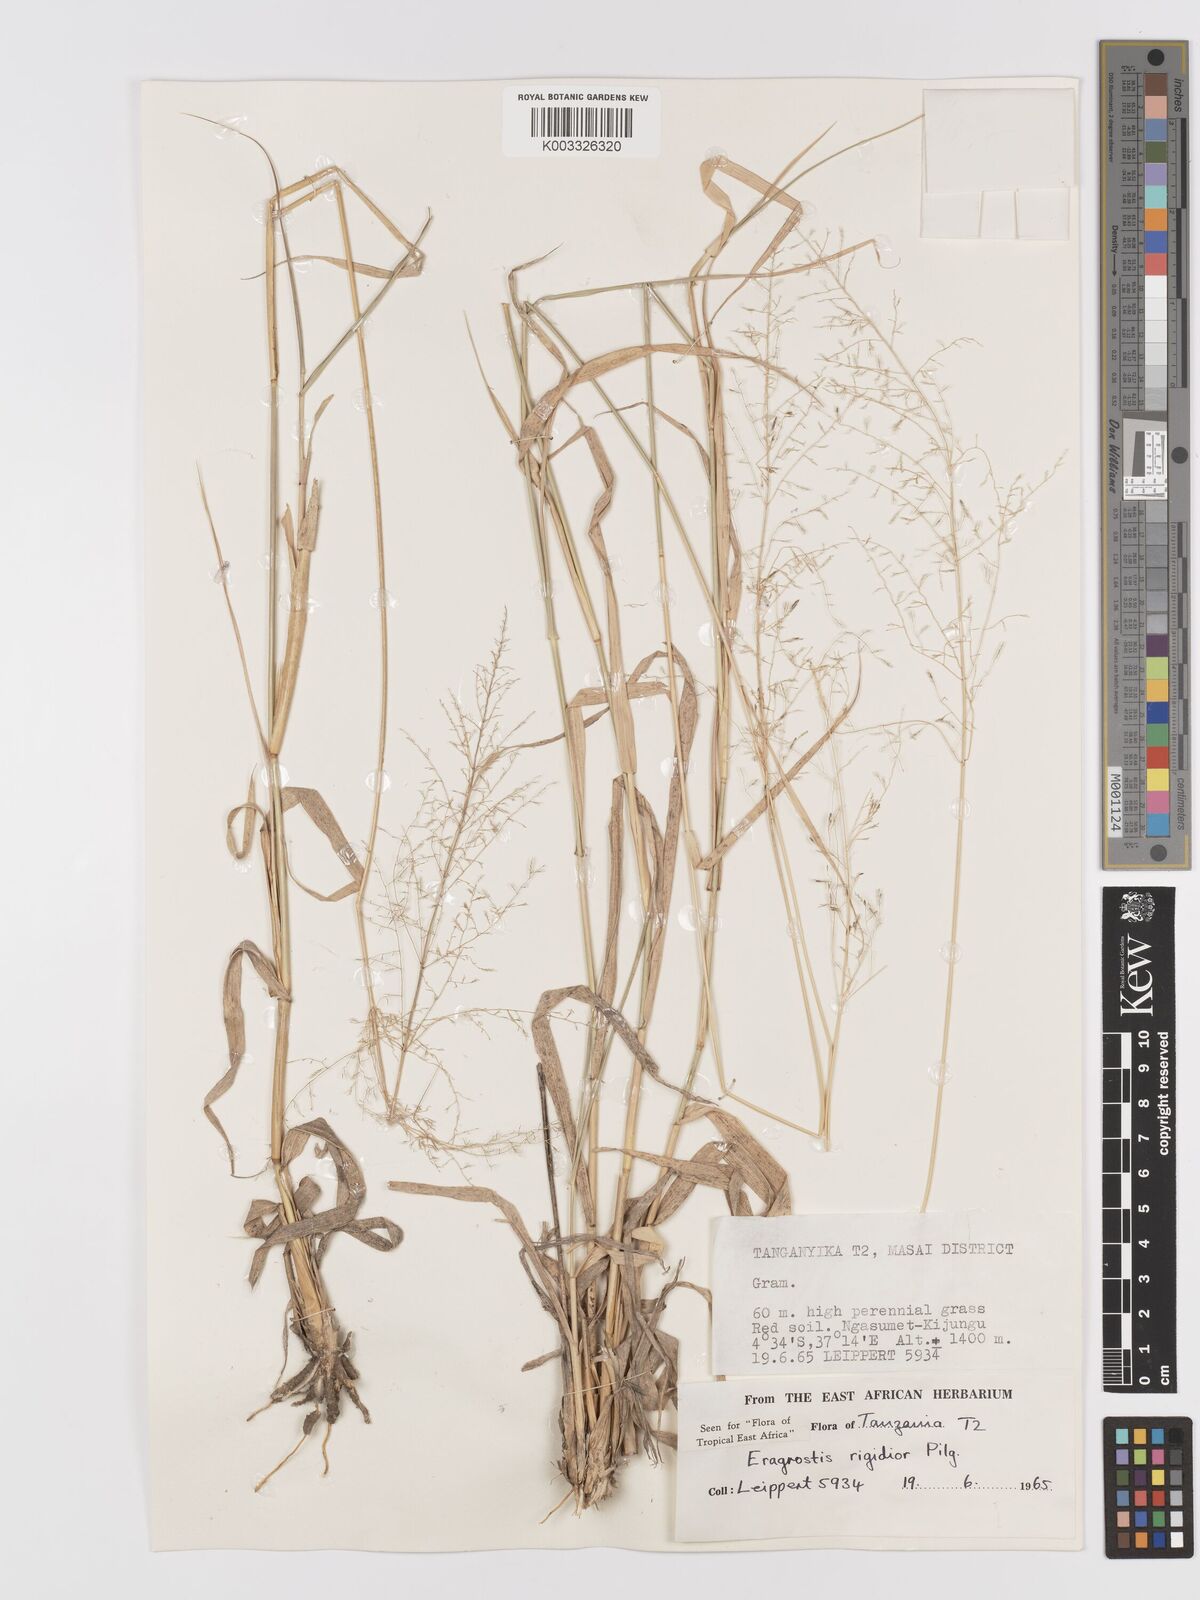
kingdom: Plantae
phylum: Tracheophyta
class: Liliopsida
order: Poales
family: Poaceae
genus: Eragrostis
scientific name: Eragrostis cylindriflora
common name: Cylinderflower lovegrass
